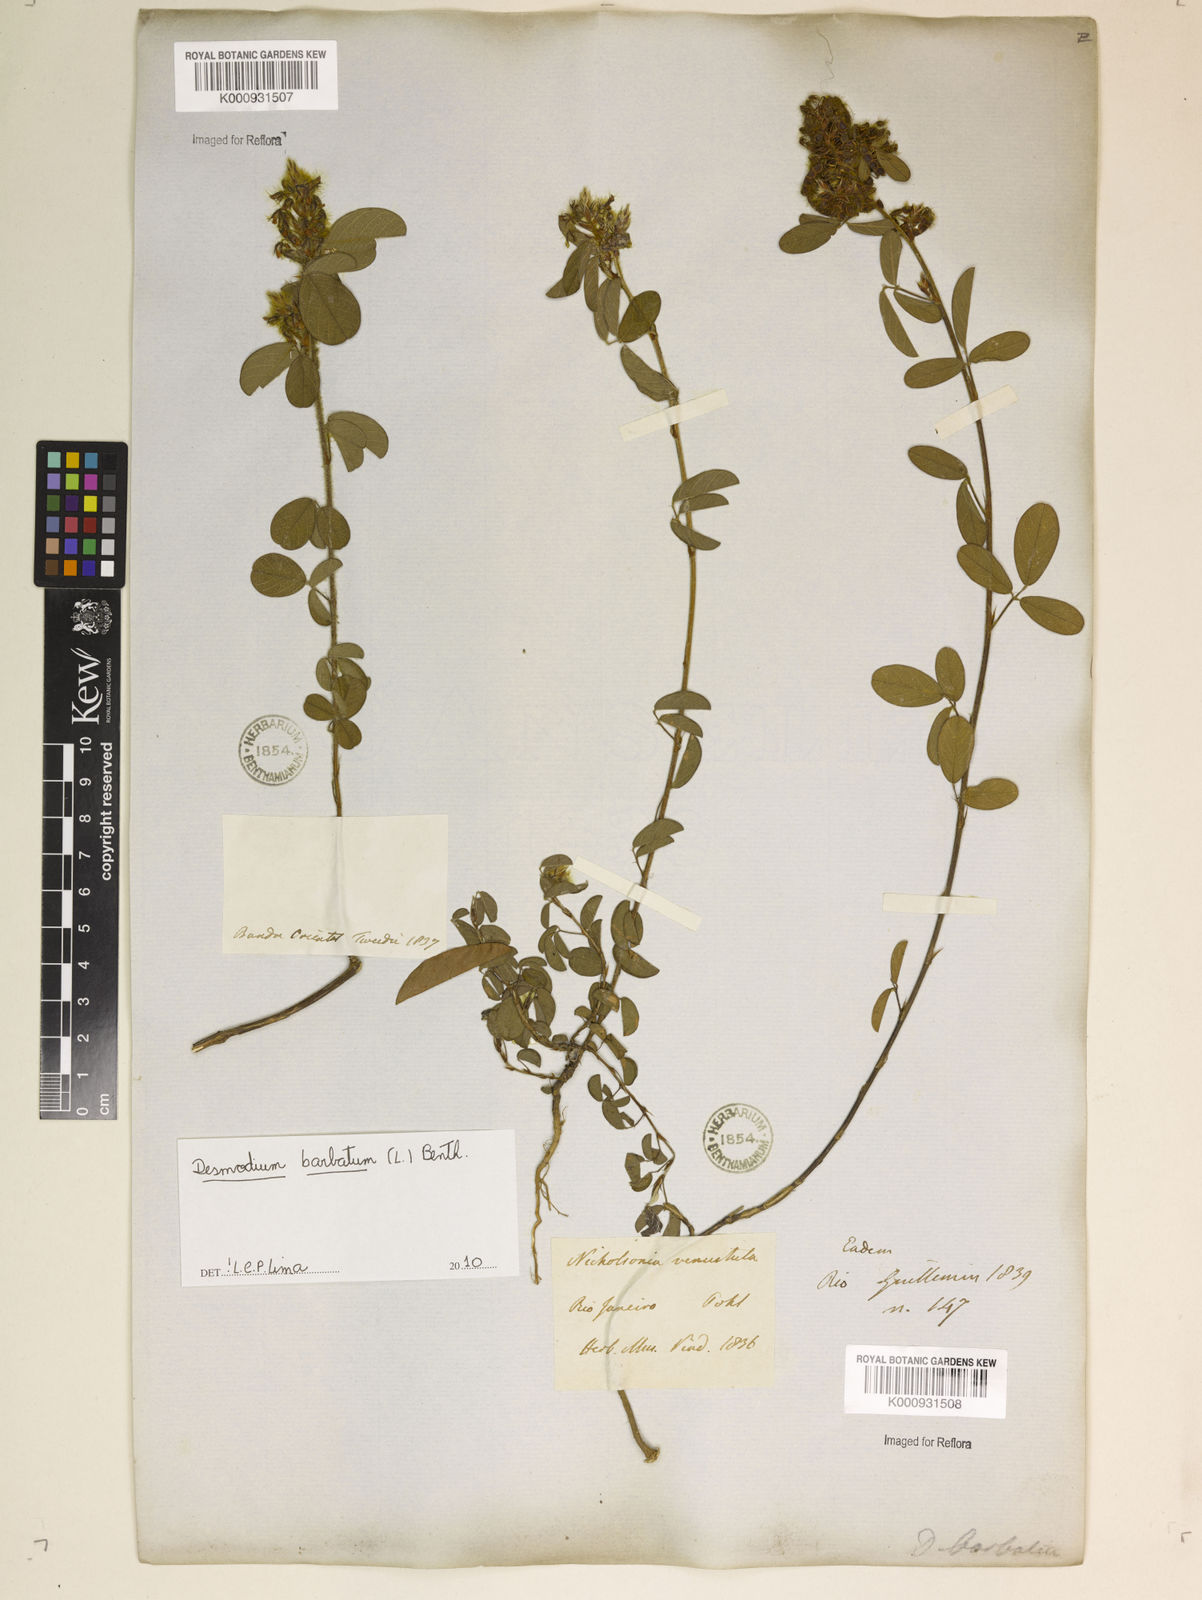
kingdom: Plantae
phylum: Tracheophyta
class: Magnoliopsida
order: Fabales
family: Fabaceae
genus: Grona
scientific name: Grona barbata
